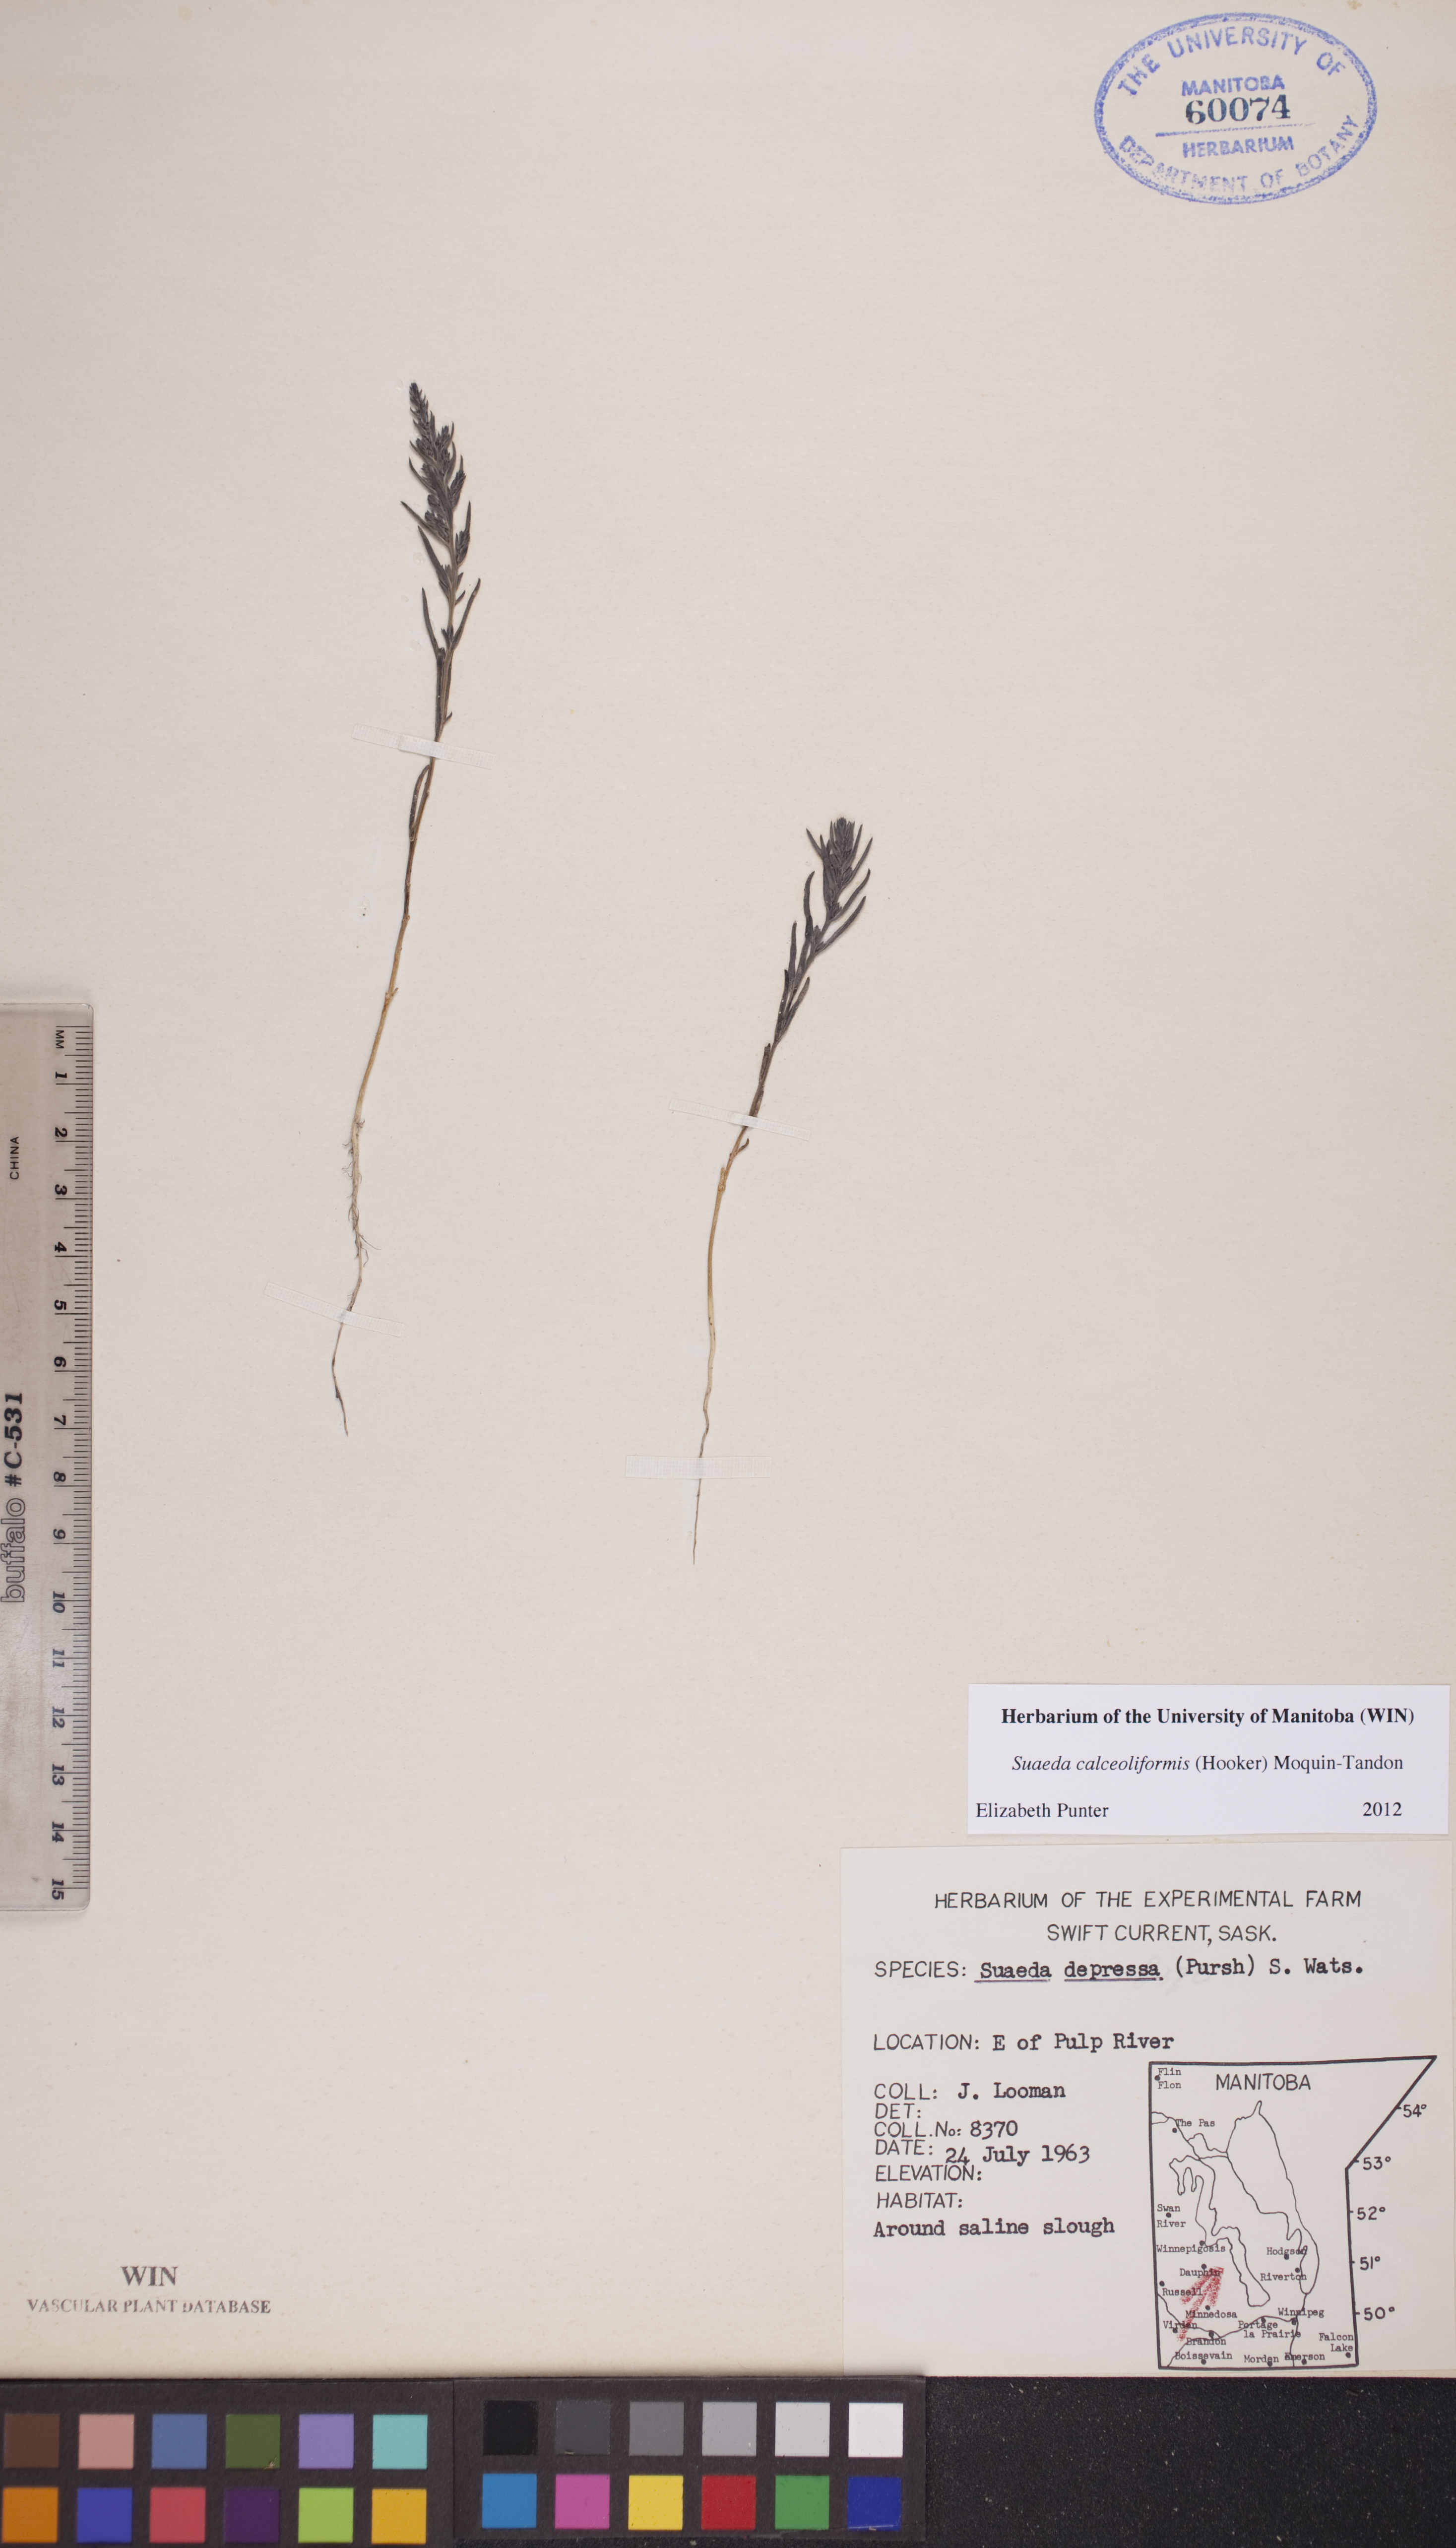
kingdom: Plantae
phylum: Tracheophyta
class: Magnoliopsida
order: Caryophyllales
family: Amaranthaceae
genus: Suaeda
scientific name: Suaeda calceoliformis
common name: Pursh's seepweed
